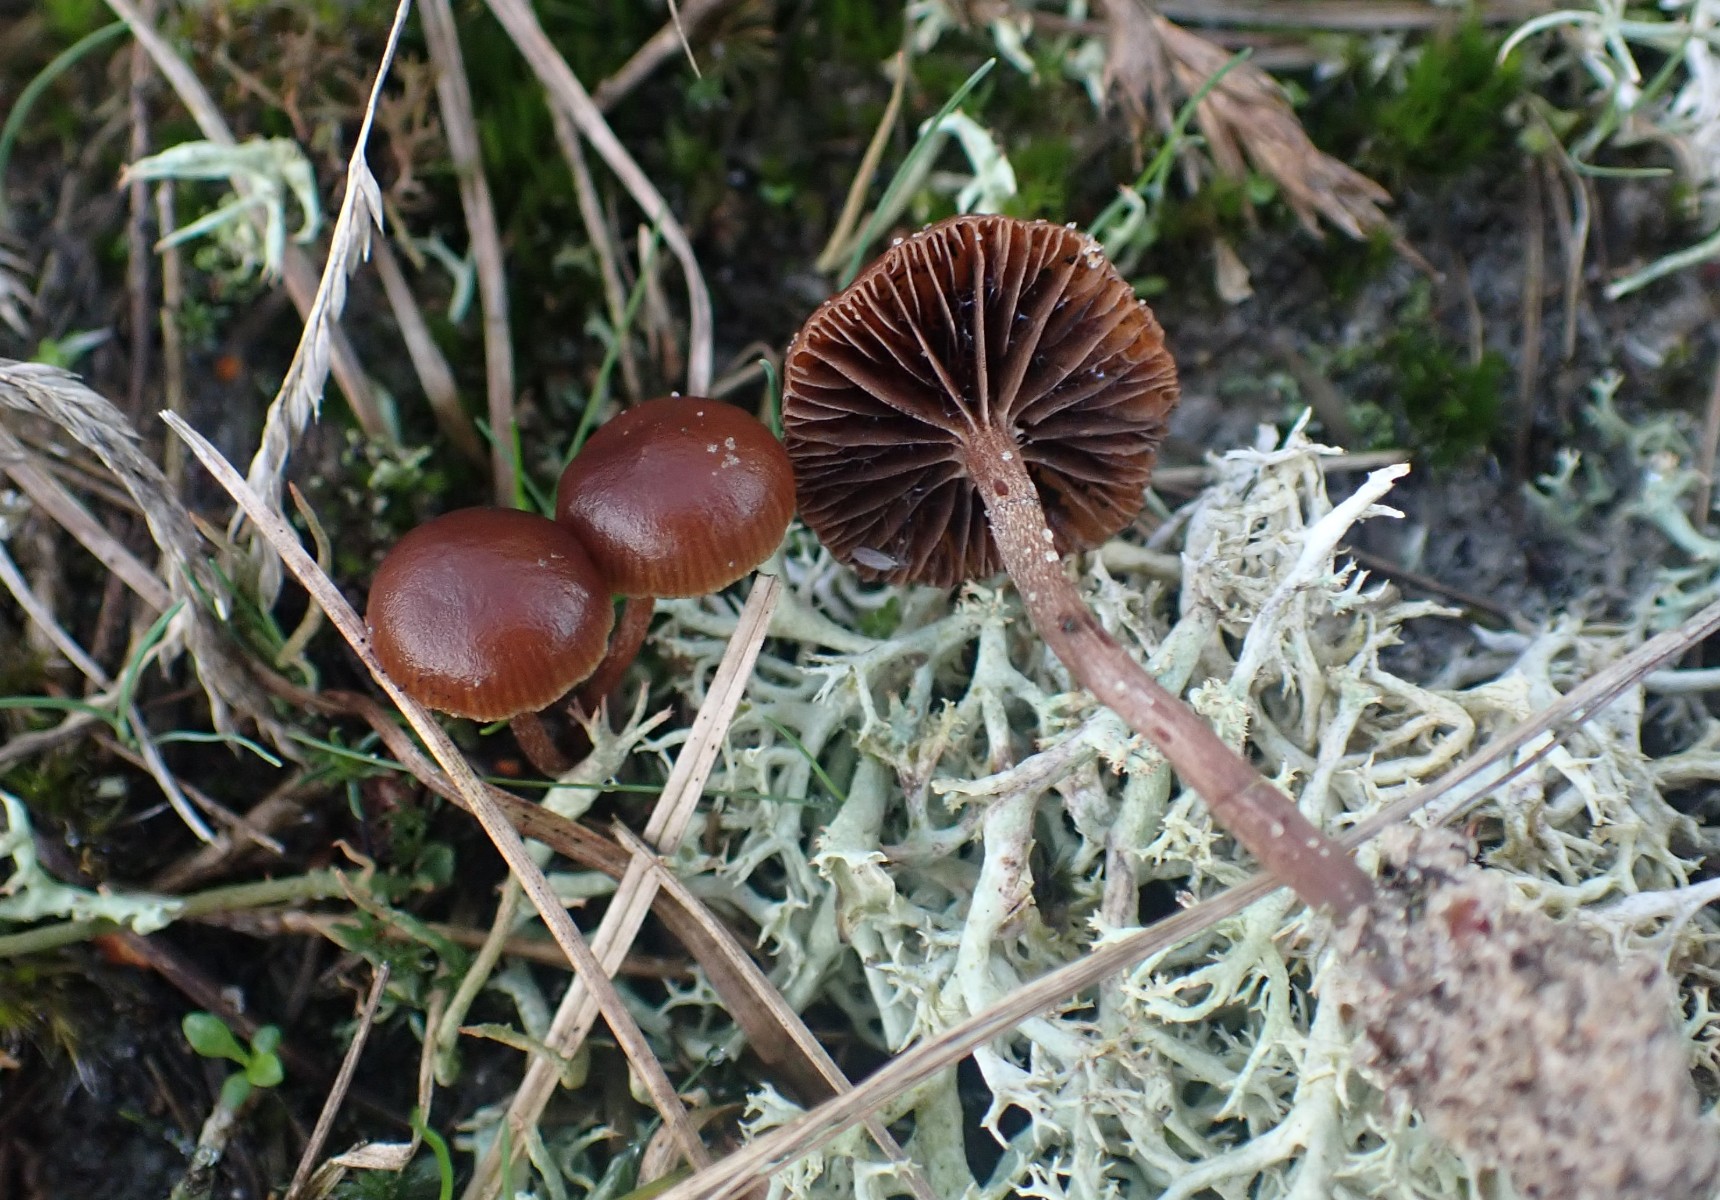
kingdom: Fungi
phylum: Basidiomycota
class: Agaricomycetes
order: Agaricales
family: Strophariaceae
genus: Deconica
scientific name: Deconica montana
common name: rødbrun stråhat
